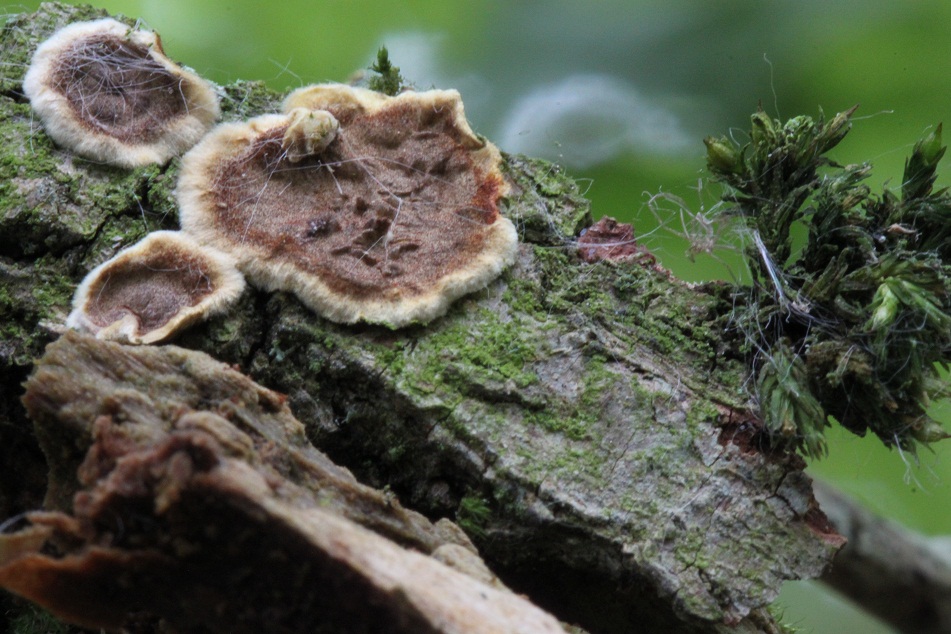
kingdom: Fungi
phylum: Basidiomycota
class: Agaricomycetes
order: Hymenochaetales
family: Hymenochaetaceae
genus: Hydnoporia
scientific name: Hydnoporia tabacina
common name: tobaksbrun ruslædersvamp
